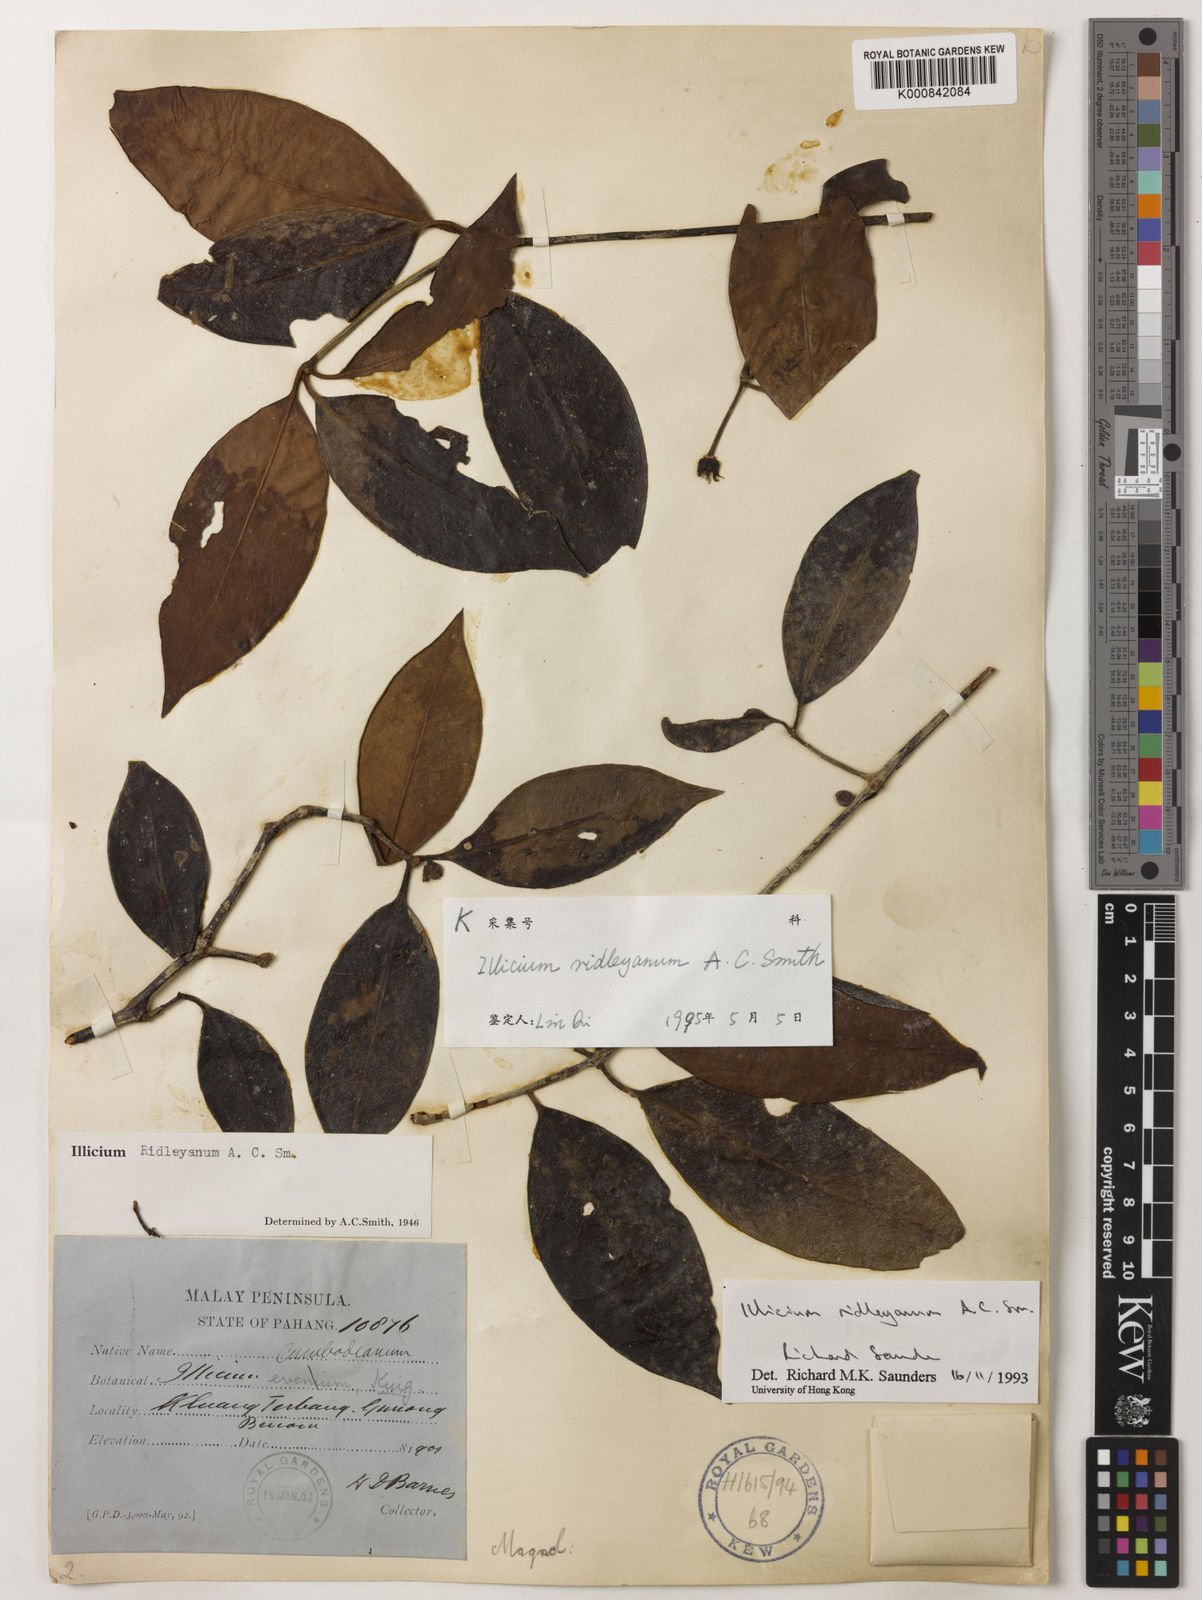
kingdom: Plantae
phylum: Tracheophyta
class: Magnoliopsida
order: Austrobaileyales
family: Schisandraceae
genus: Illicium
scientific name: Illicium ridleyanum
